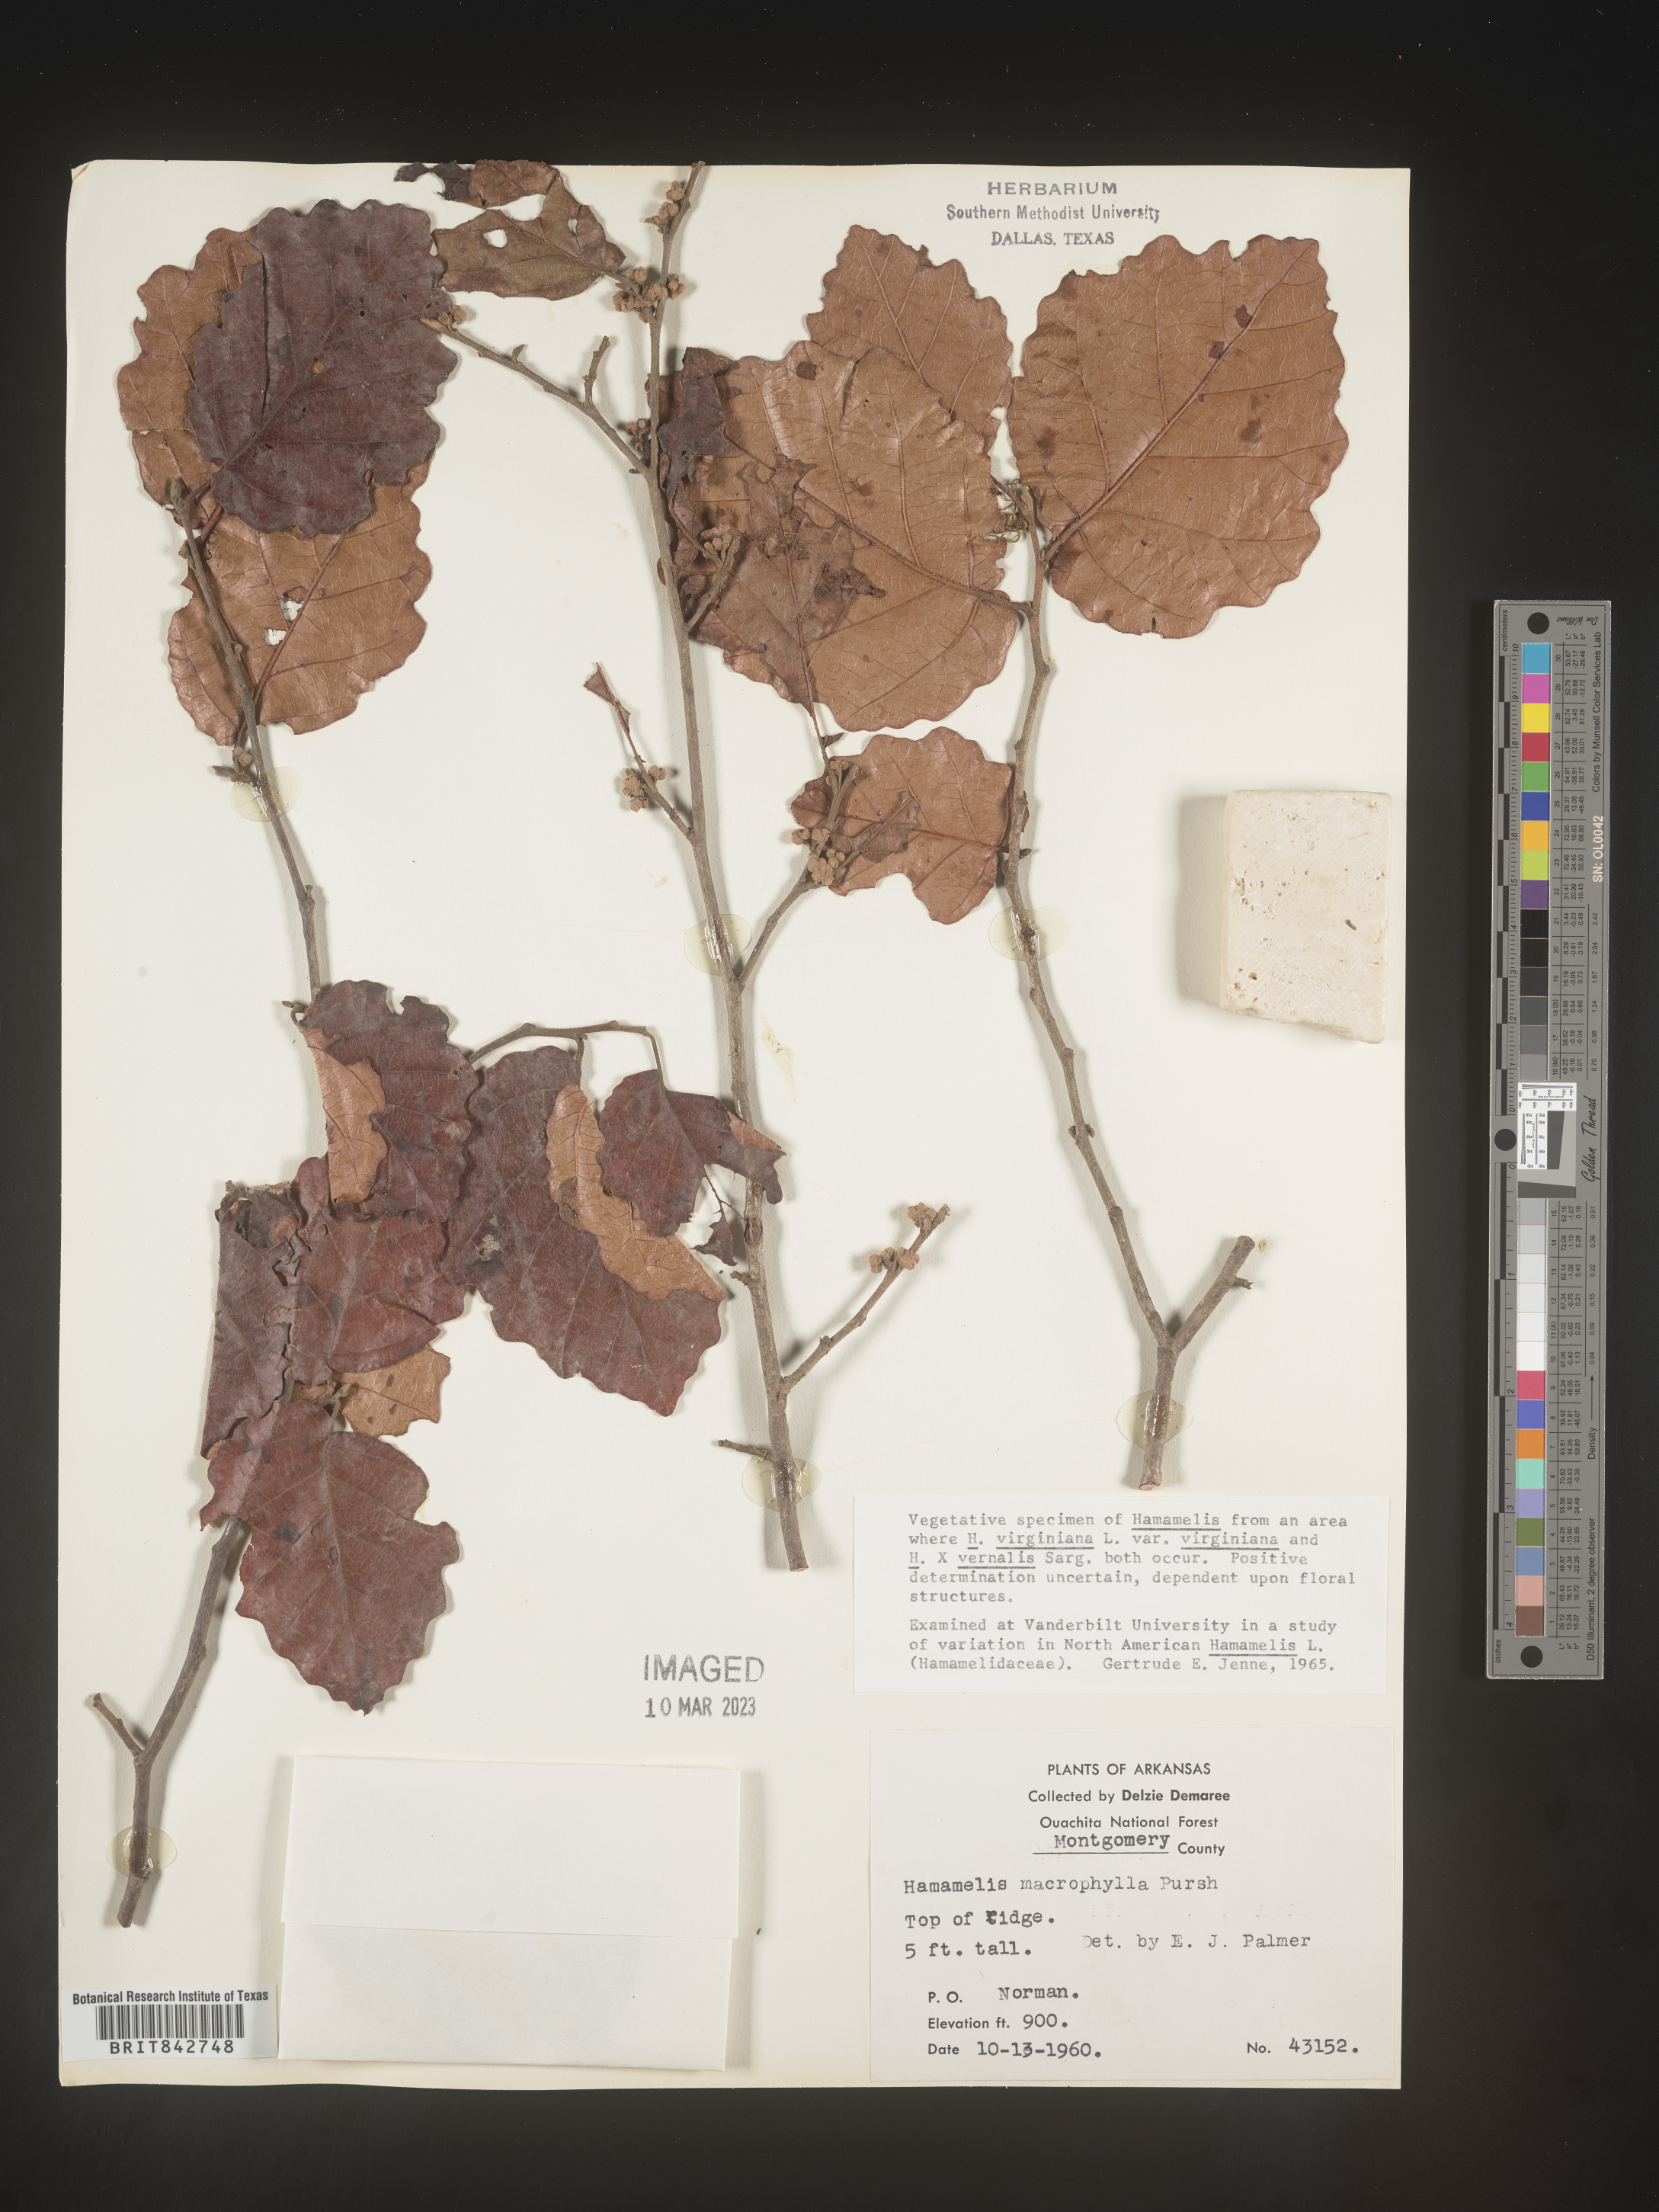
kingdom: Plantae
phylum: Tracheophyta
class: Magnoliopsida
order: Saxifragales
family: Hamamelidaceae
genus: Hamamelis
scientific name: Hamamelis virginiana
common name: Witch-hazel
